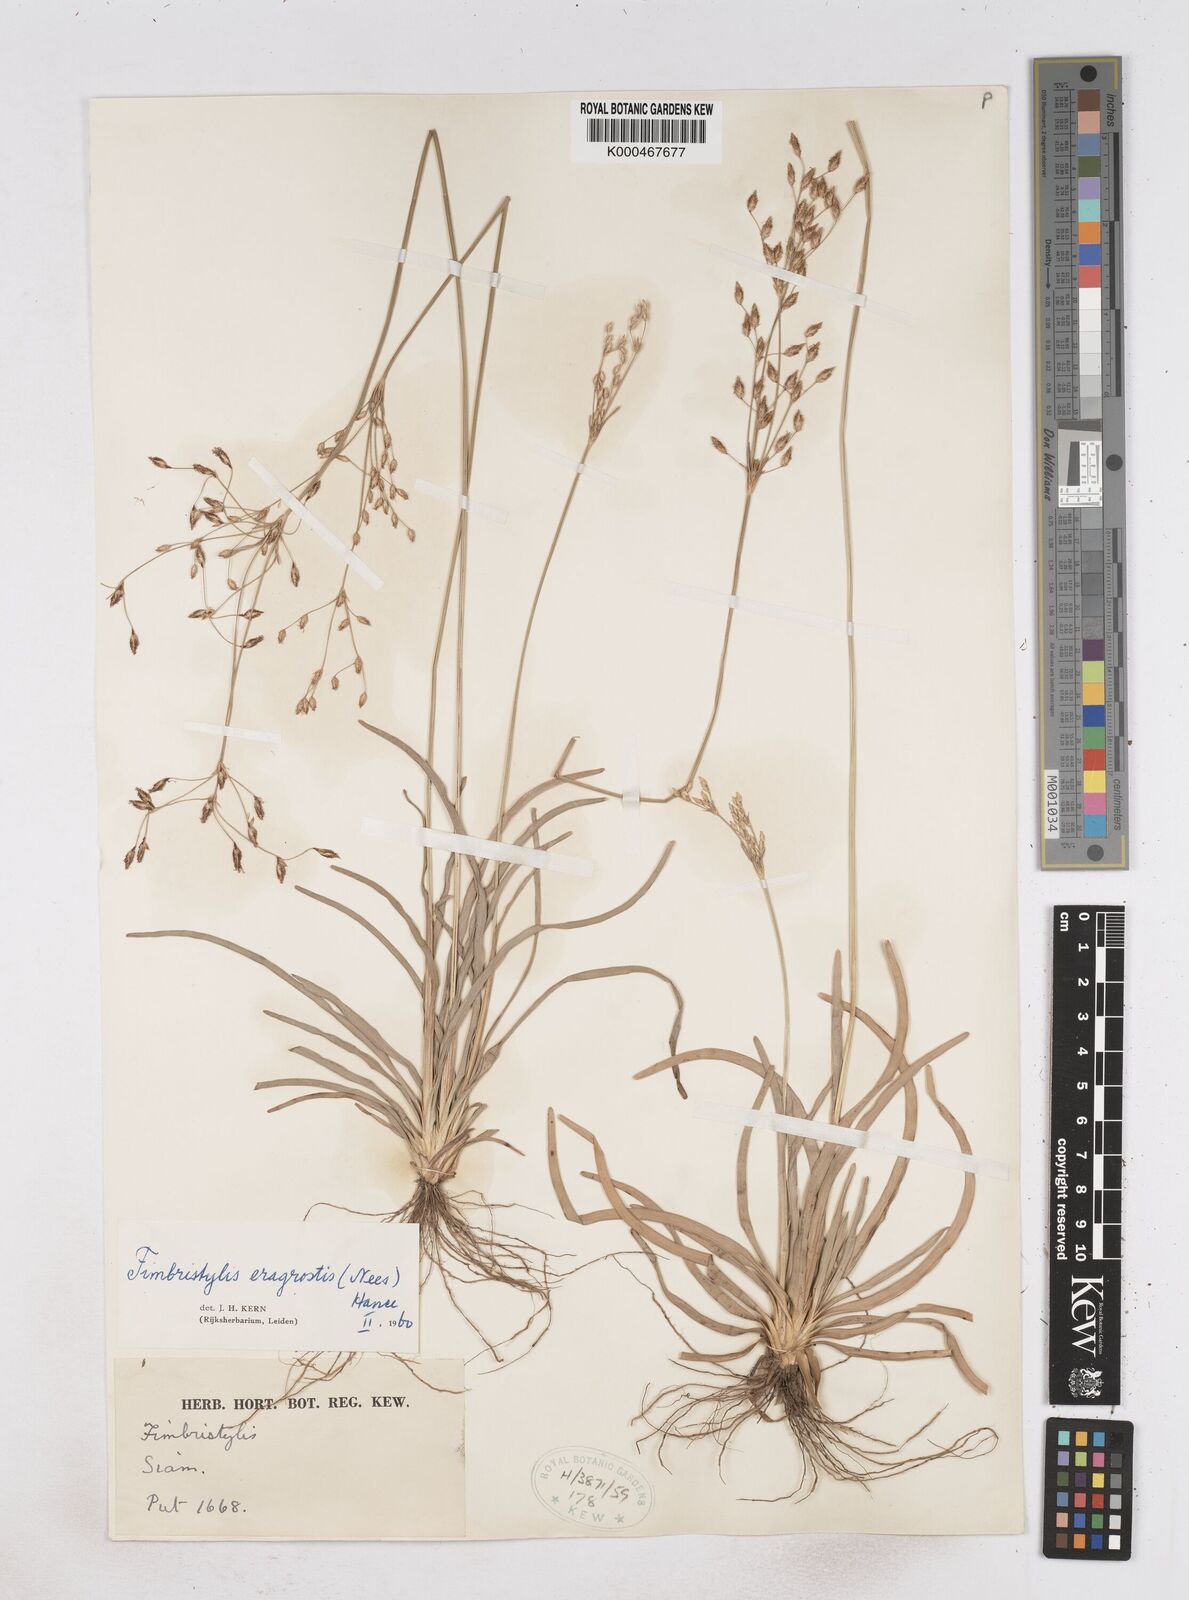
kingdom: Plantae
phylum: Tracheophyta
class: Liliopsida
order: Poales
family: Cyperaceae
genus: Fimbristylis
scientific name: Fimbristylis eragrostis
